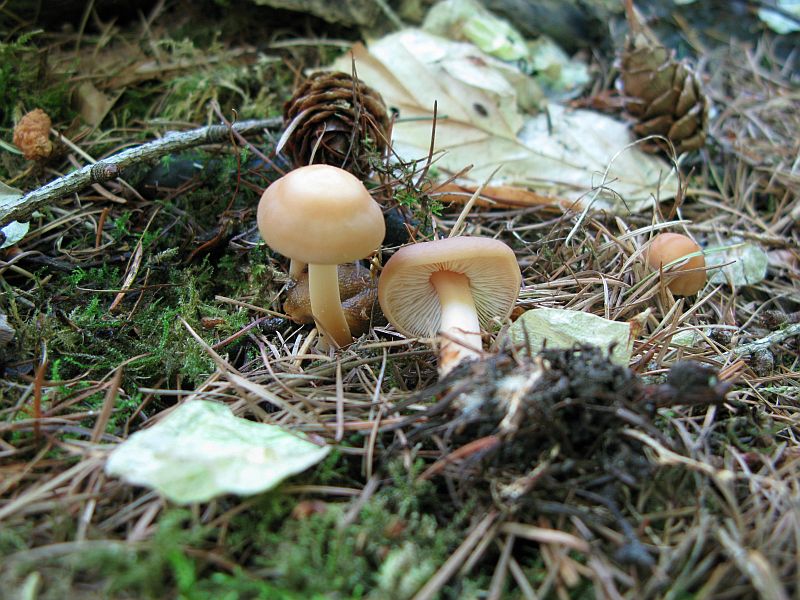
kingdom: Fungi
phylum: Basidiomycota
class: Agaricomycetes
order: Agaricales
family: Omphalotaceae
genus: Gymnopus
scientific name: Gymnopus aquosus
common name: bleg fladhat
